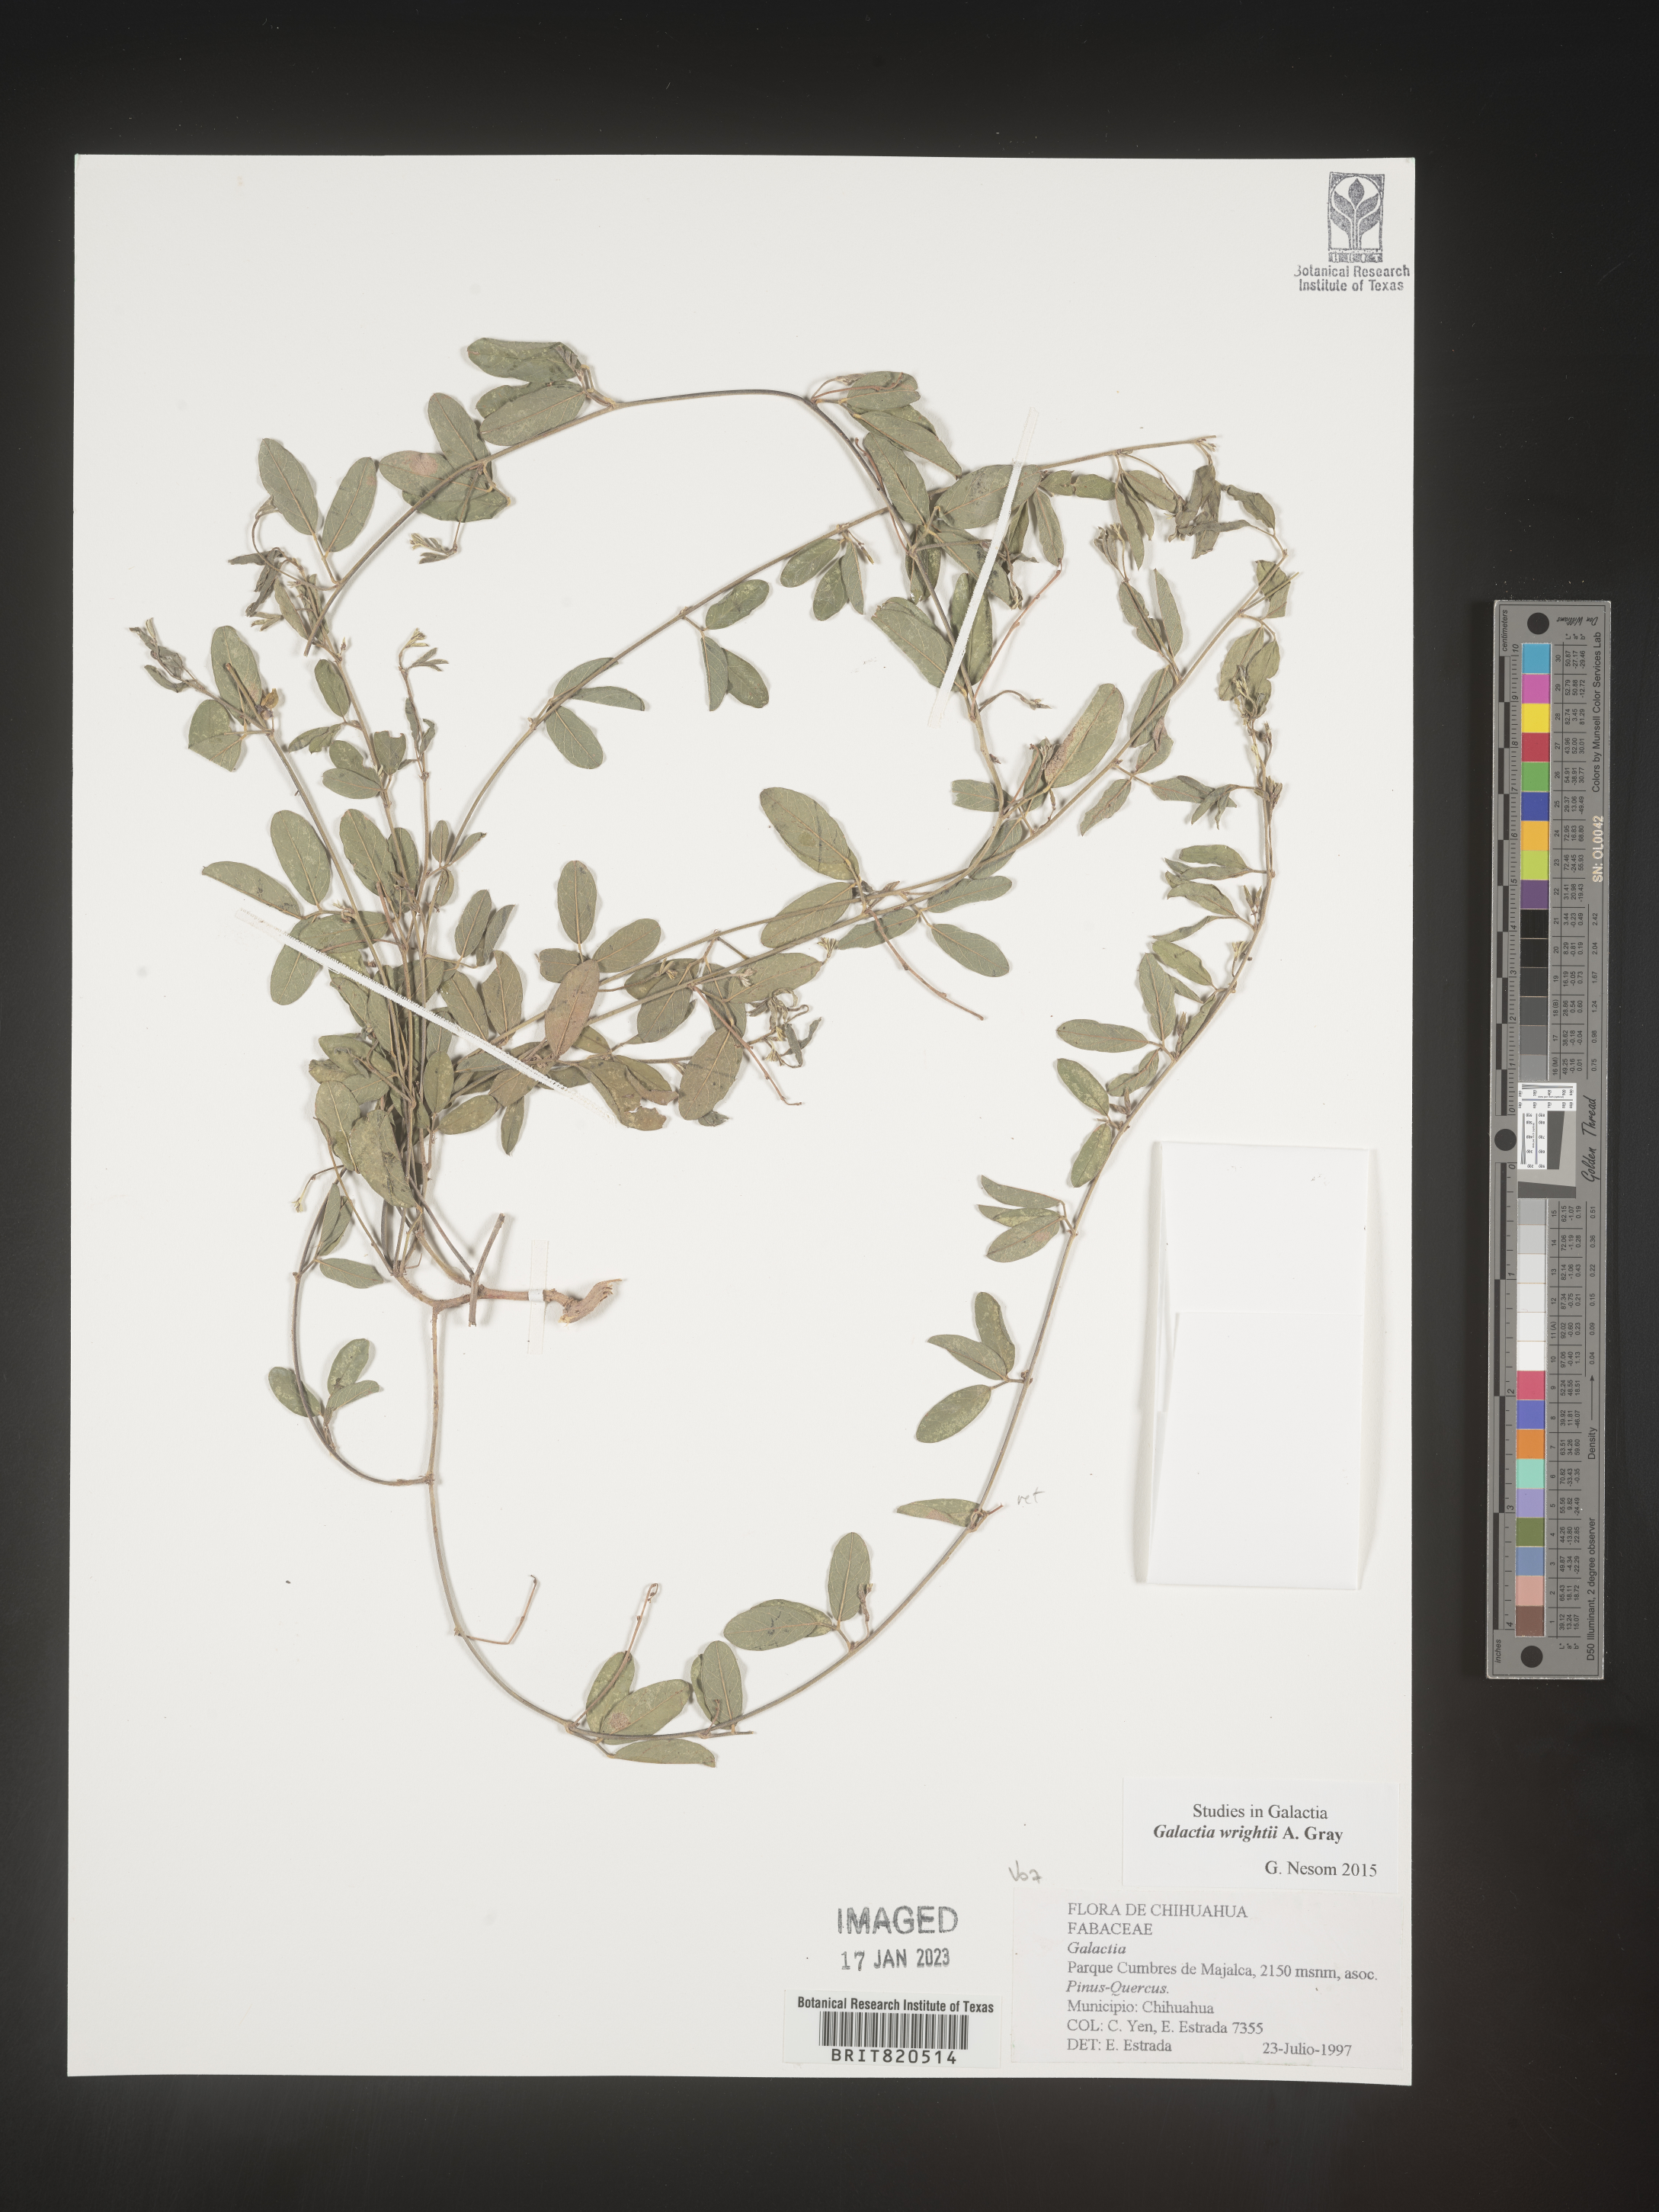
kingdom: Plantae
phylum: Tracheophyta
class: Magnoliopsida
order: Fabales
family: Fabaceae
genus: Galactia
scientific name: Galactia wrightii
